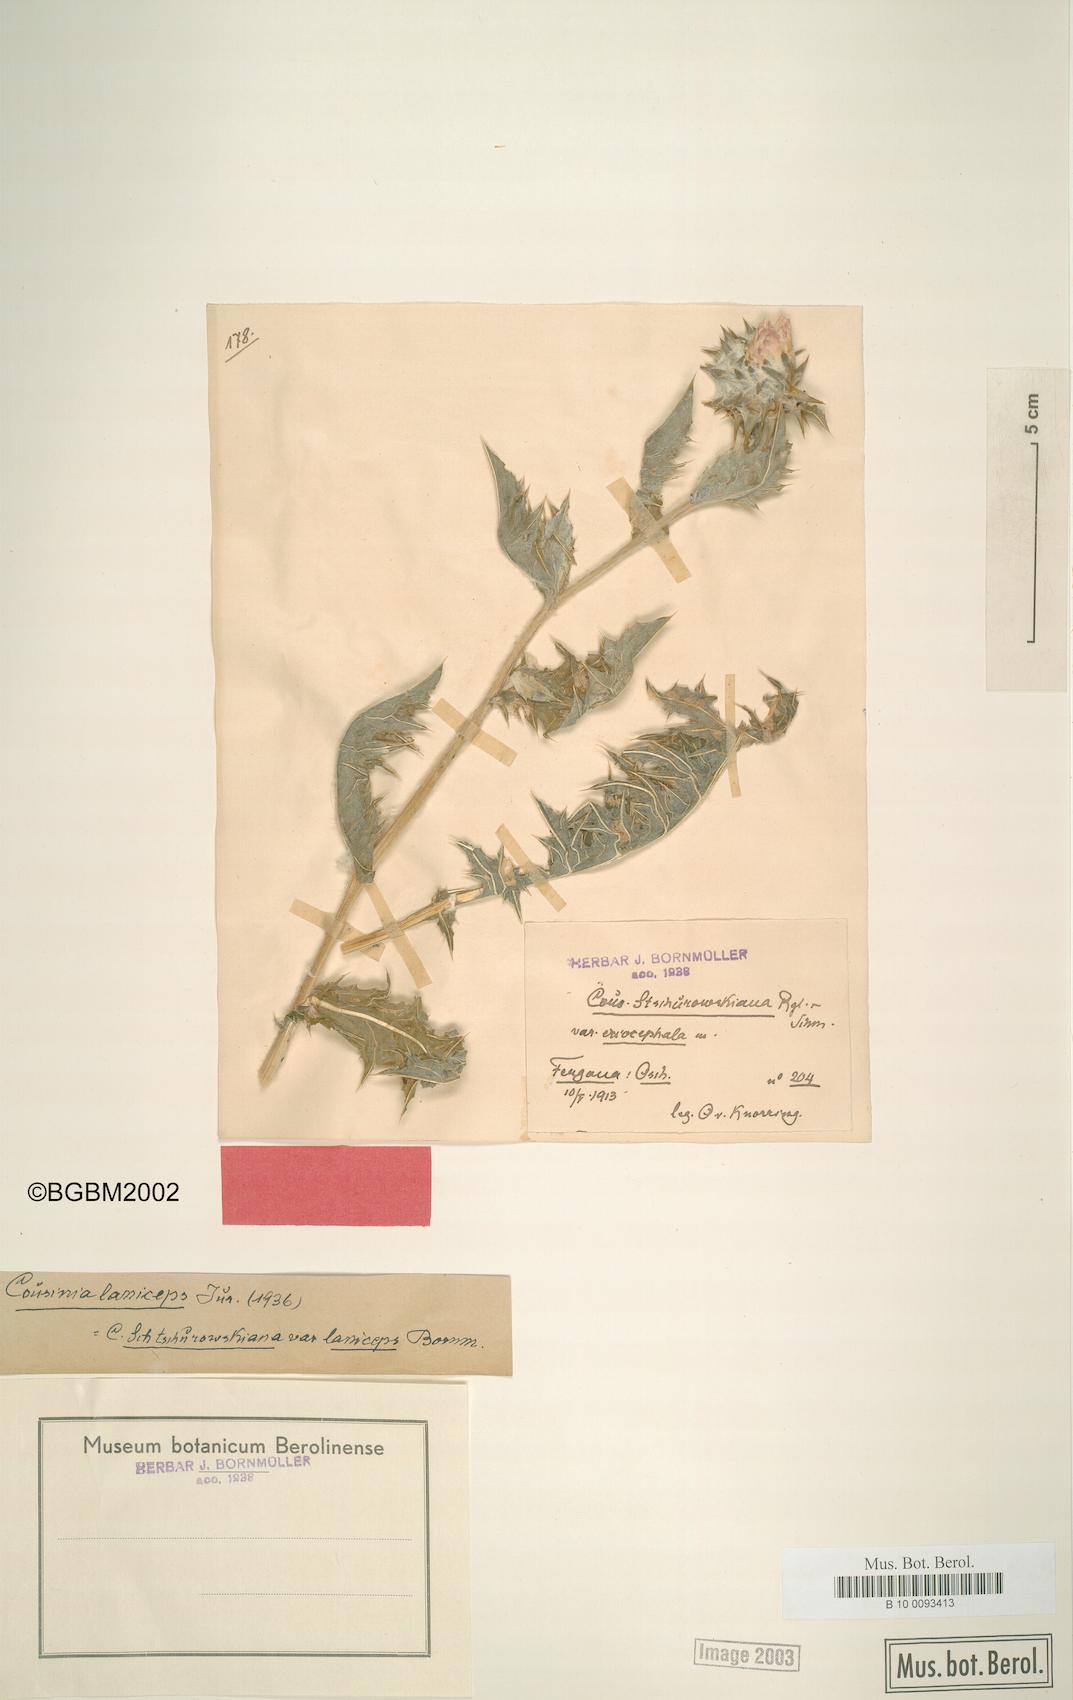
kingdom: Plantae
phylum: Tracheophyta
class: Magnoliopsida
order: Asterales
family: Asteraceae
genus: Cousinia
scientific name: Cousinia laniceps
